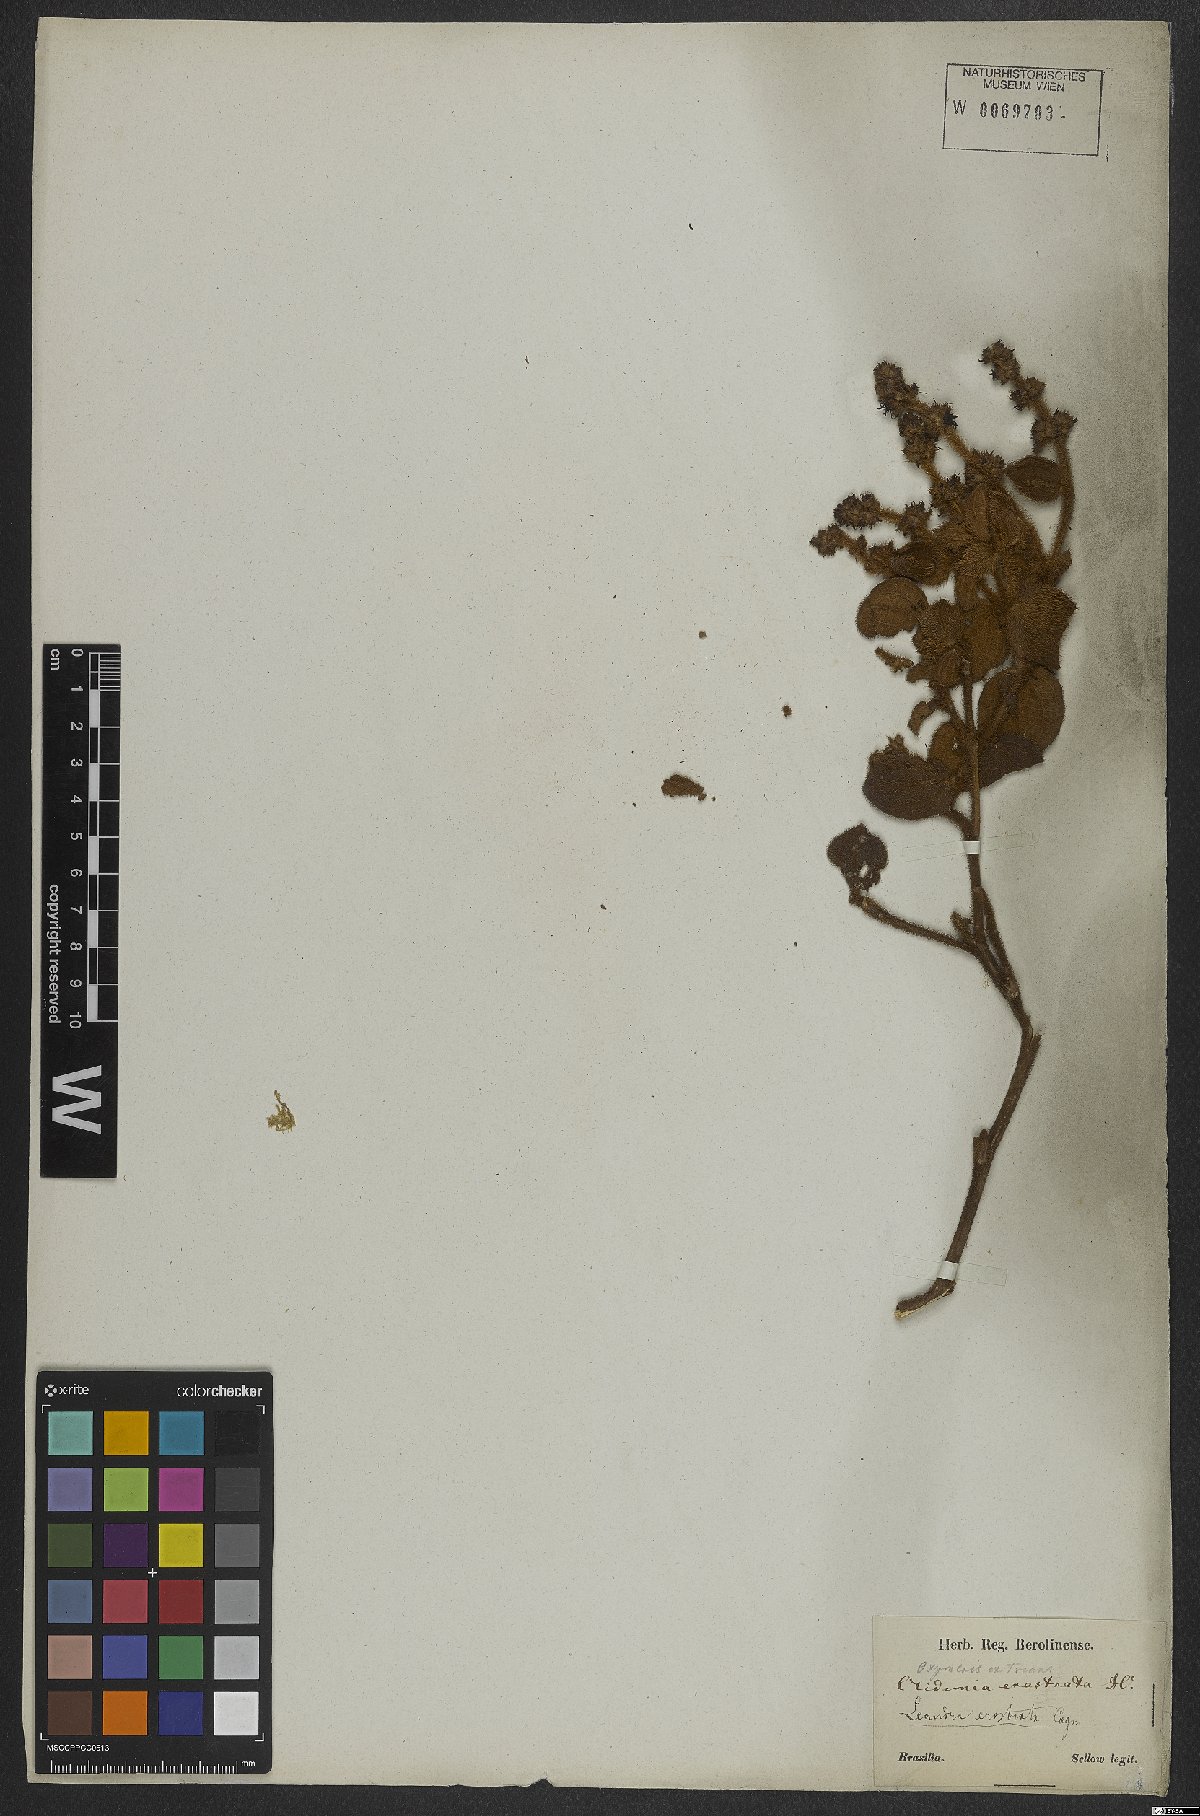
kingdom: Plantae
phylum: Tracheophyta
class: Magnoliopsida
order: Myrtales
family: Melastomataceae
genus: Miconia
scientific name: Miconia erostrata
